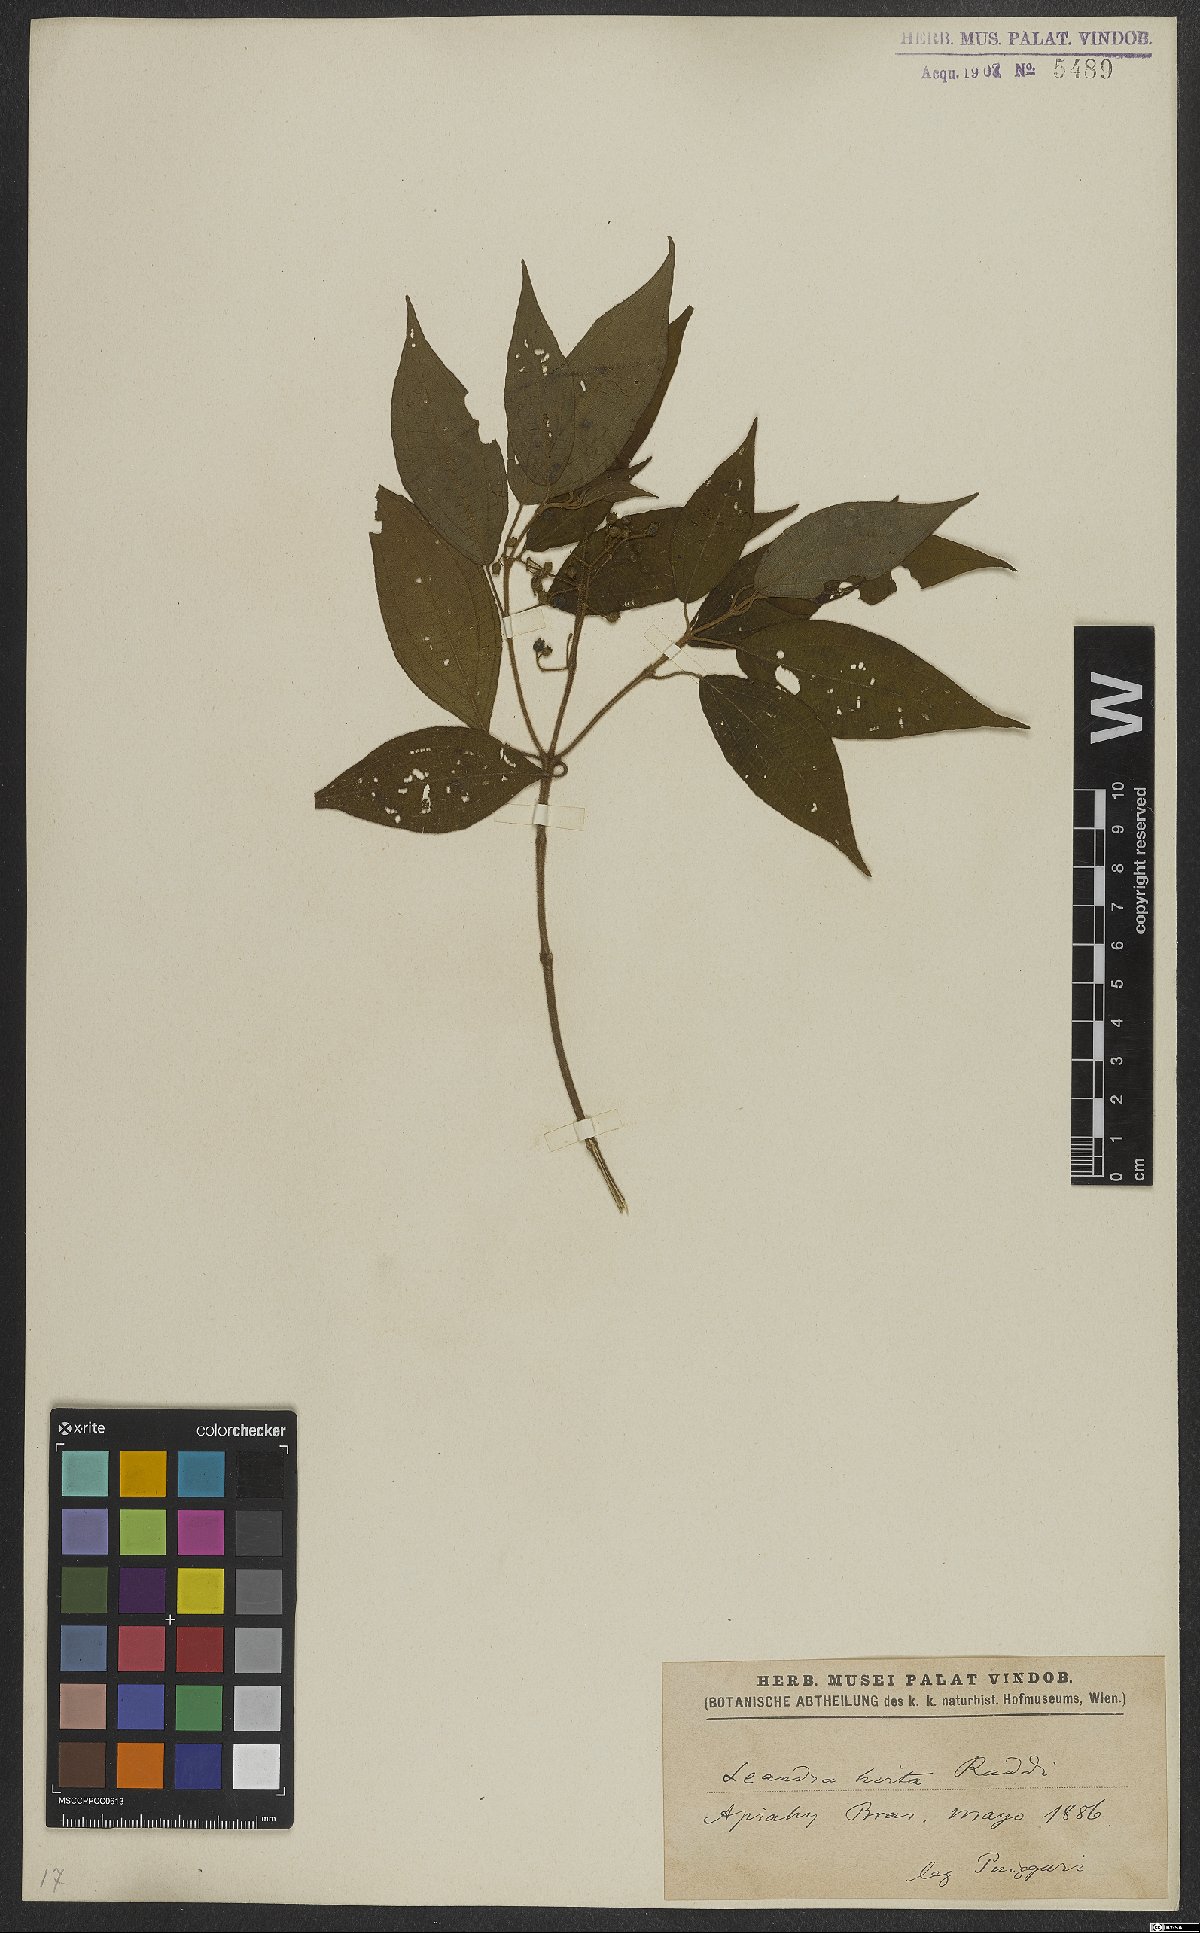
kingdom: Plantae
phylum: Tracheophyta
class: Magnoliopsida
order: Myrtales
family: Melastomataceae
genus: Miconia
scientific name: Miconia dubia
